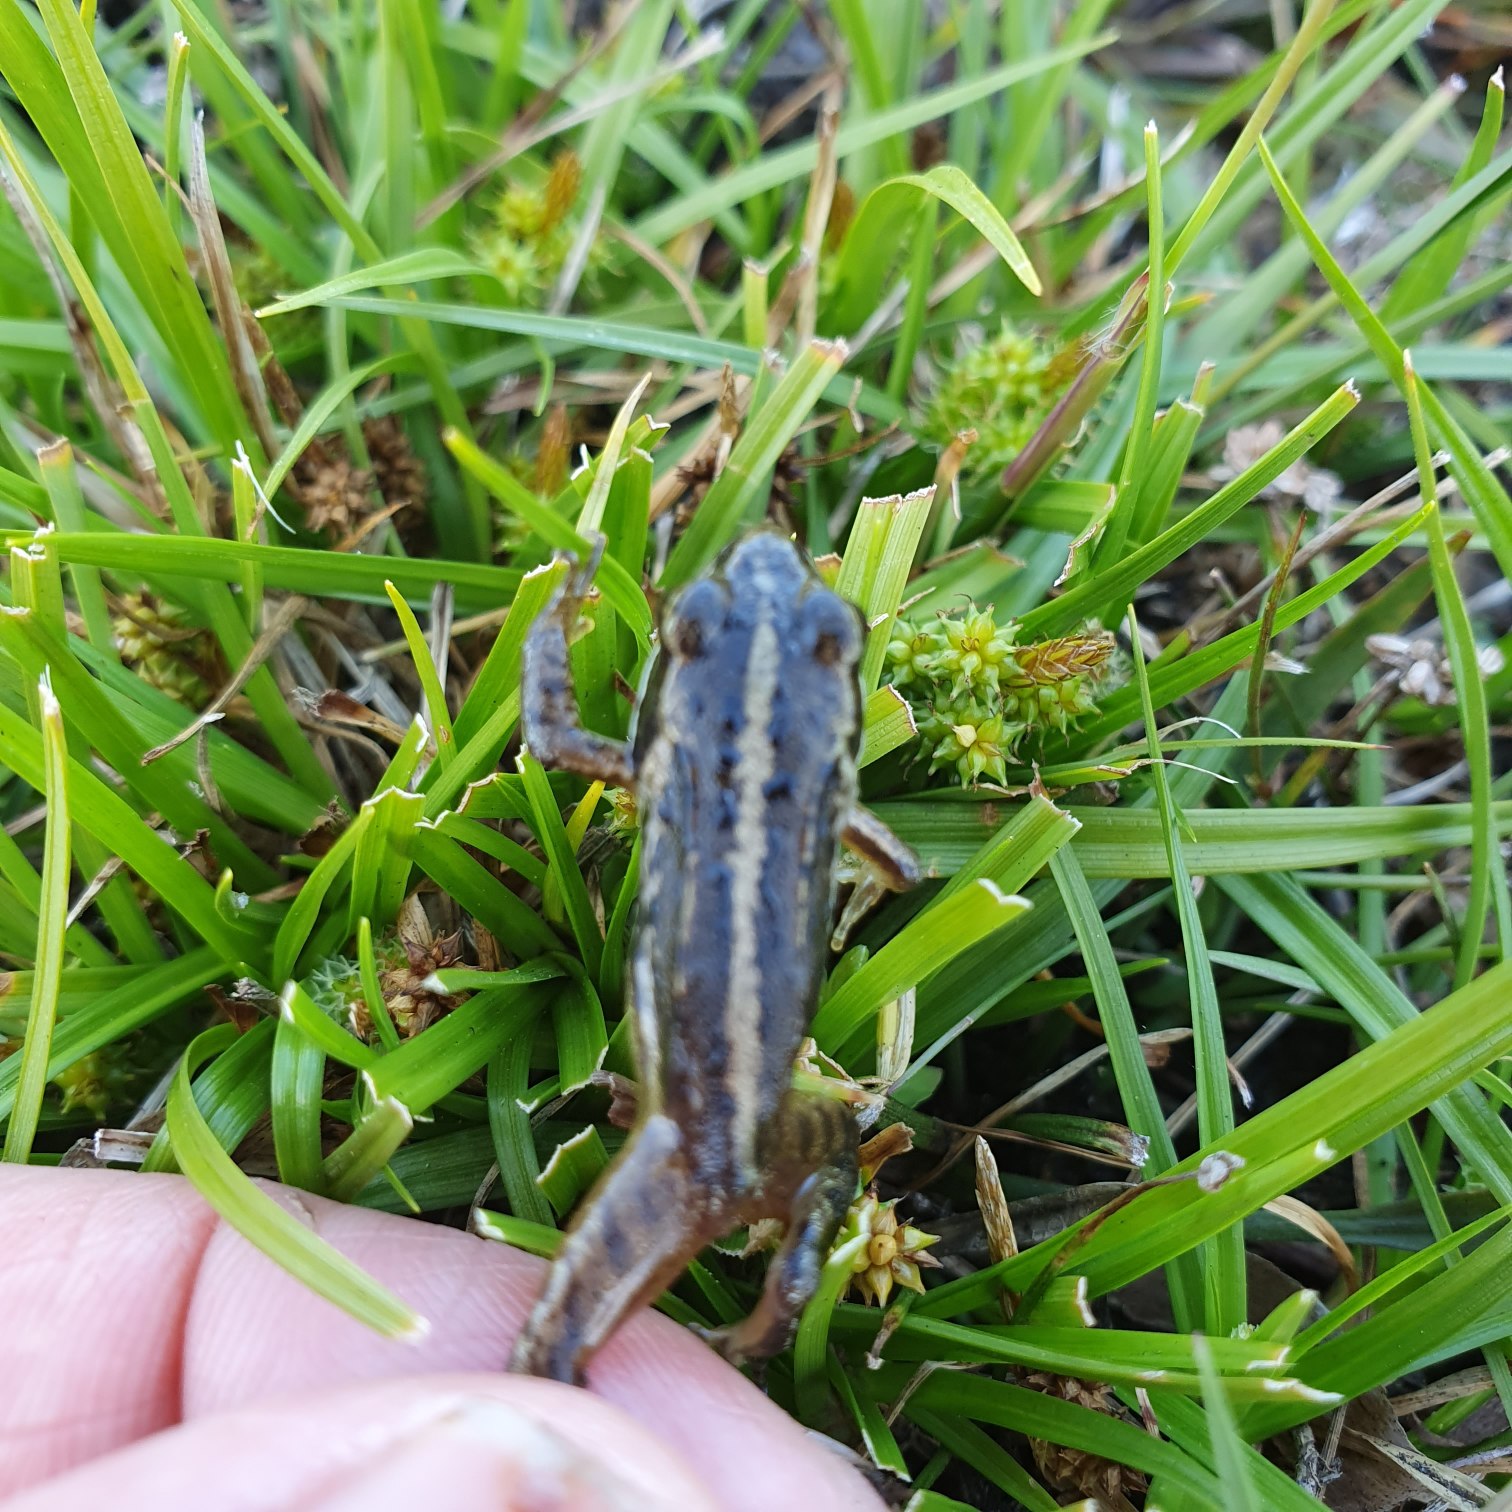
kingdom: Animalia
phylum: Chordata
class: Amphibia
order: Anura
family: Ranidae
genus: Rana
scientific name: Rana arvalis
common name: Spidssnudet frø
